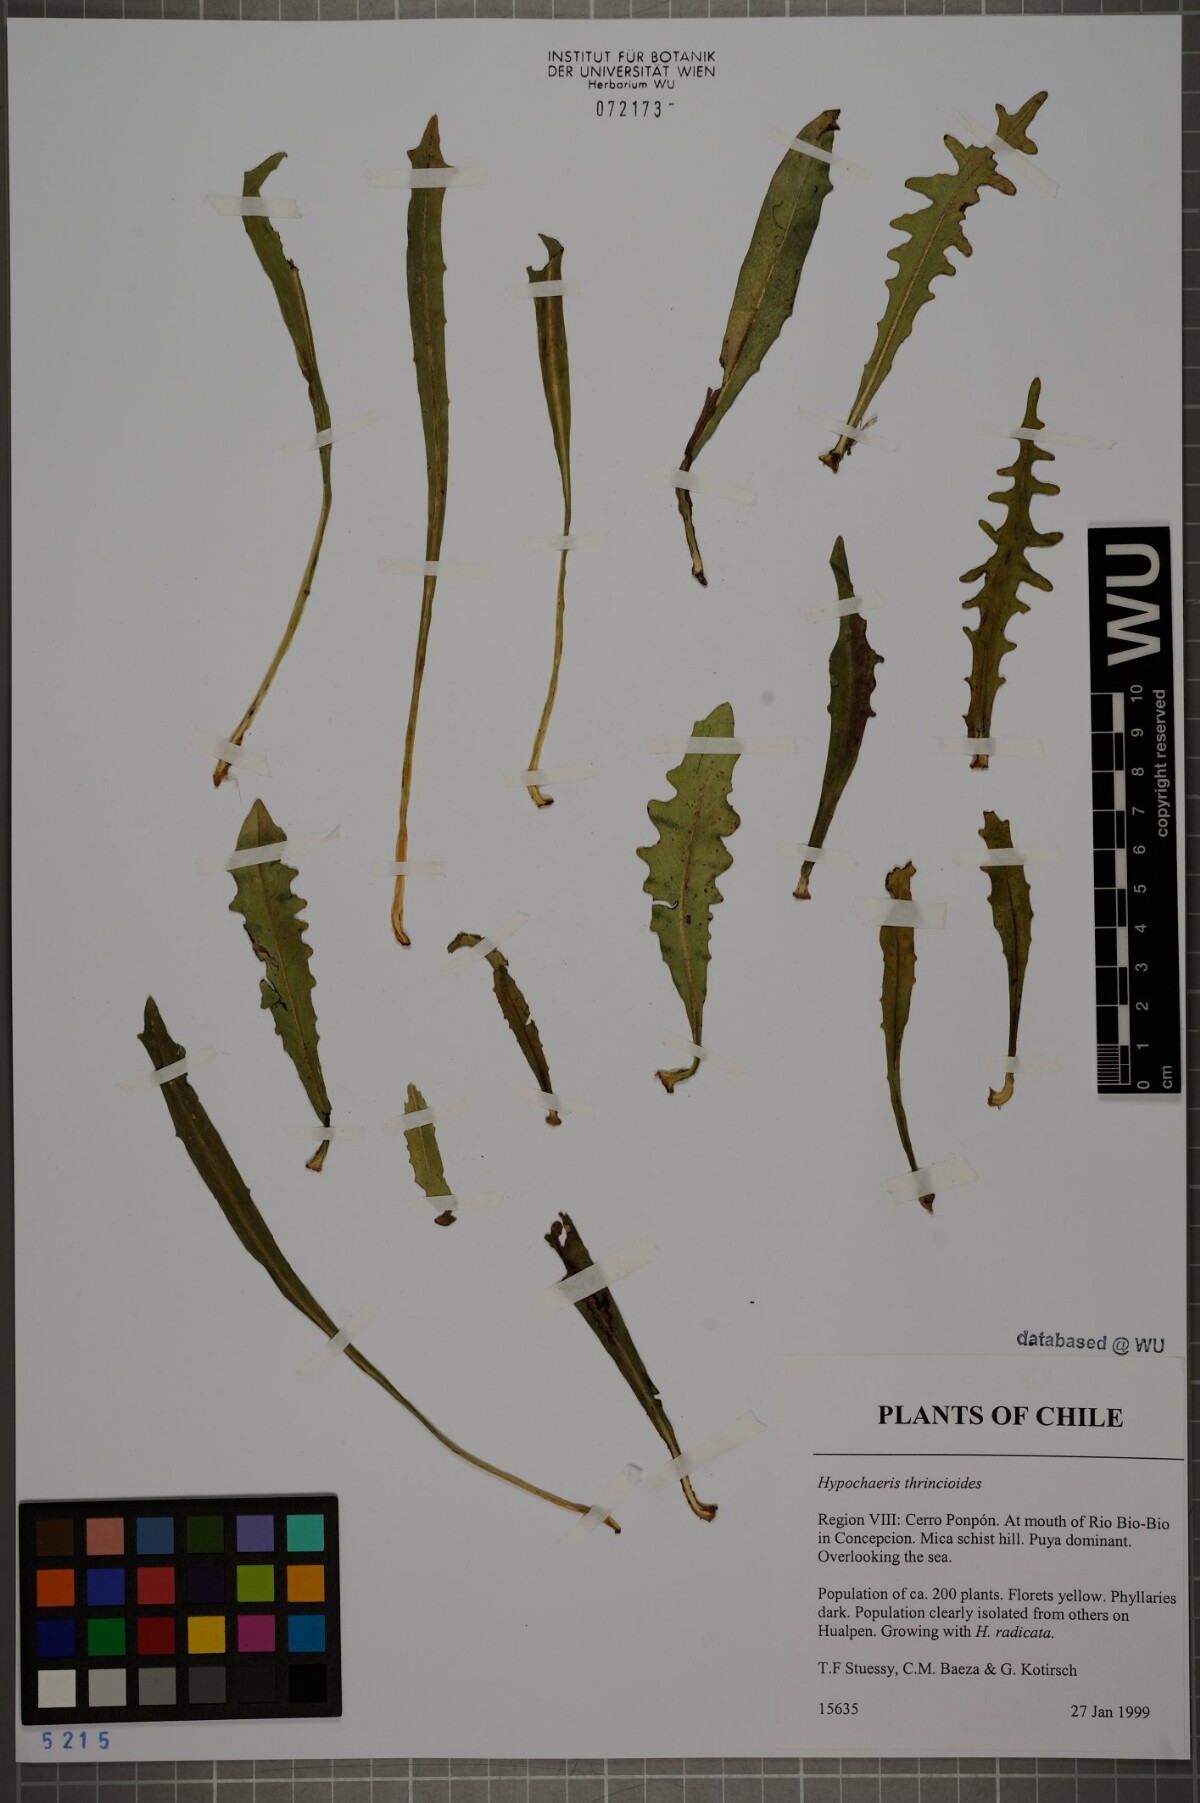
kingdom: Plantae
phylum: Tracheophyta
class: Magnoliopsida
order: Asterales
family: Asteraceae
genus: Hypochaeris
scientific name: Hypochaeris apargioides
